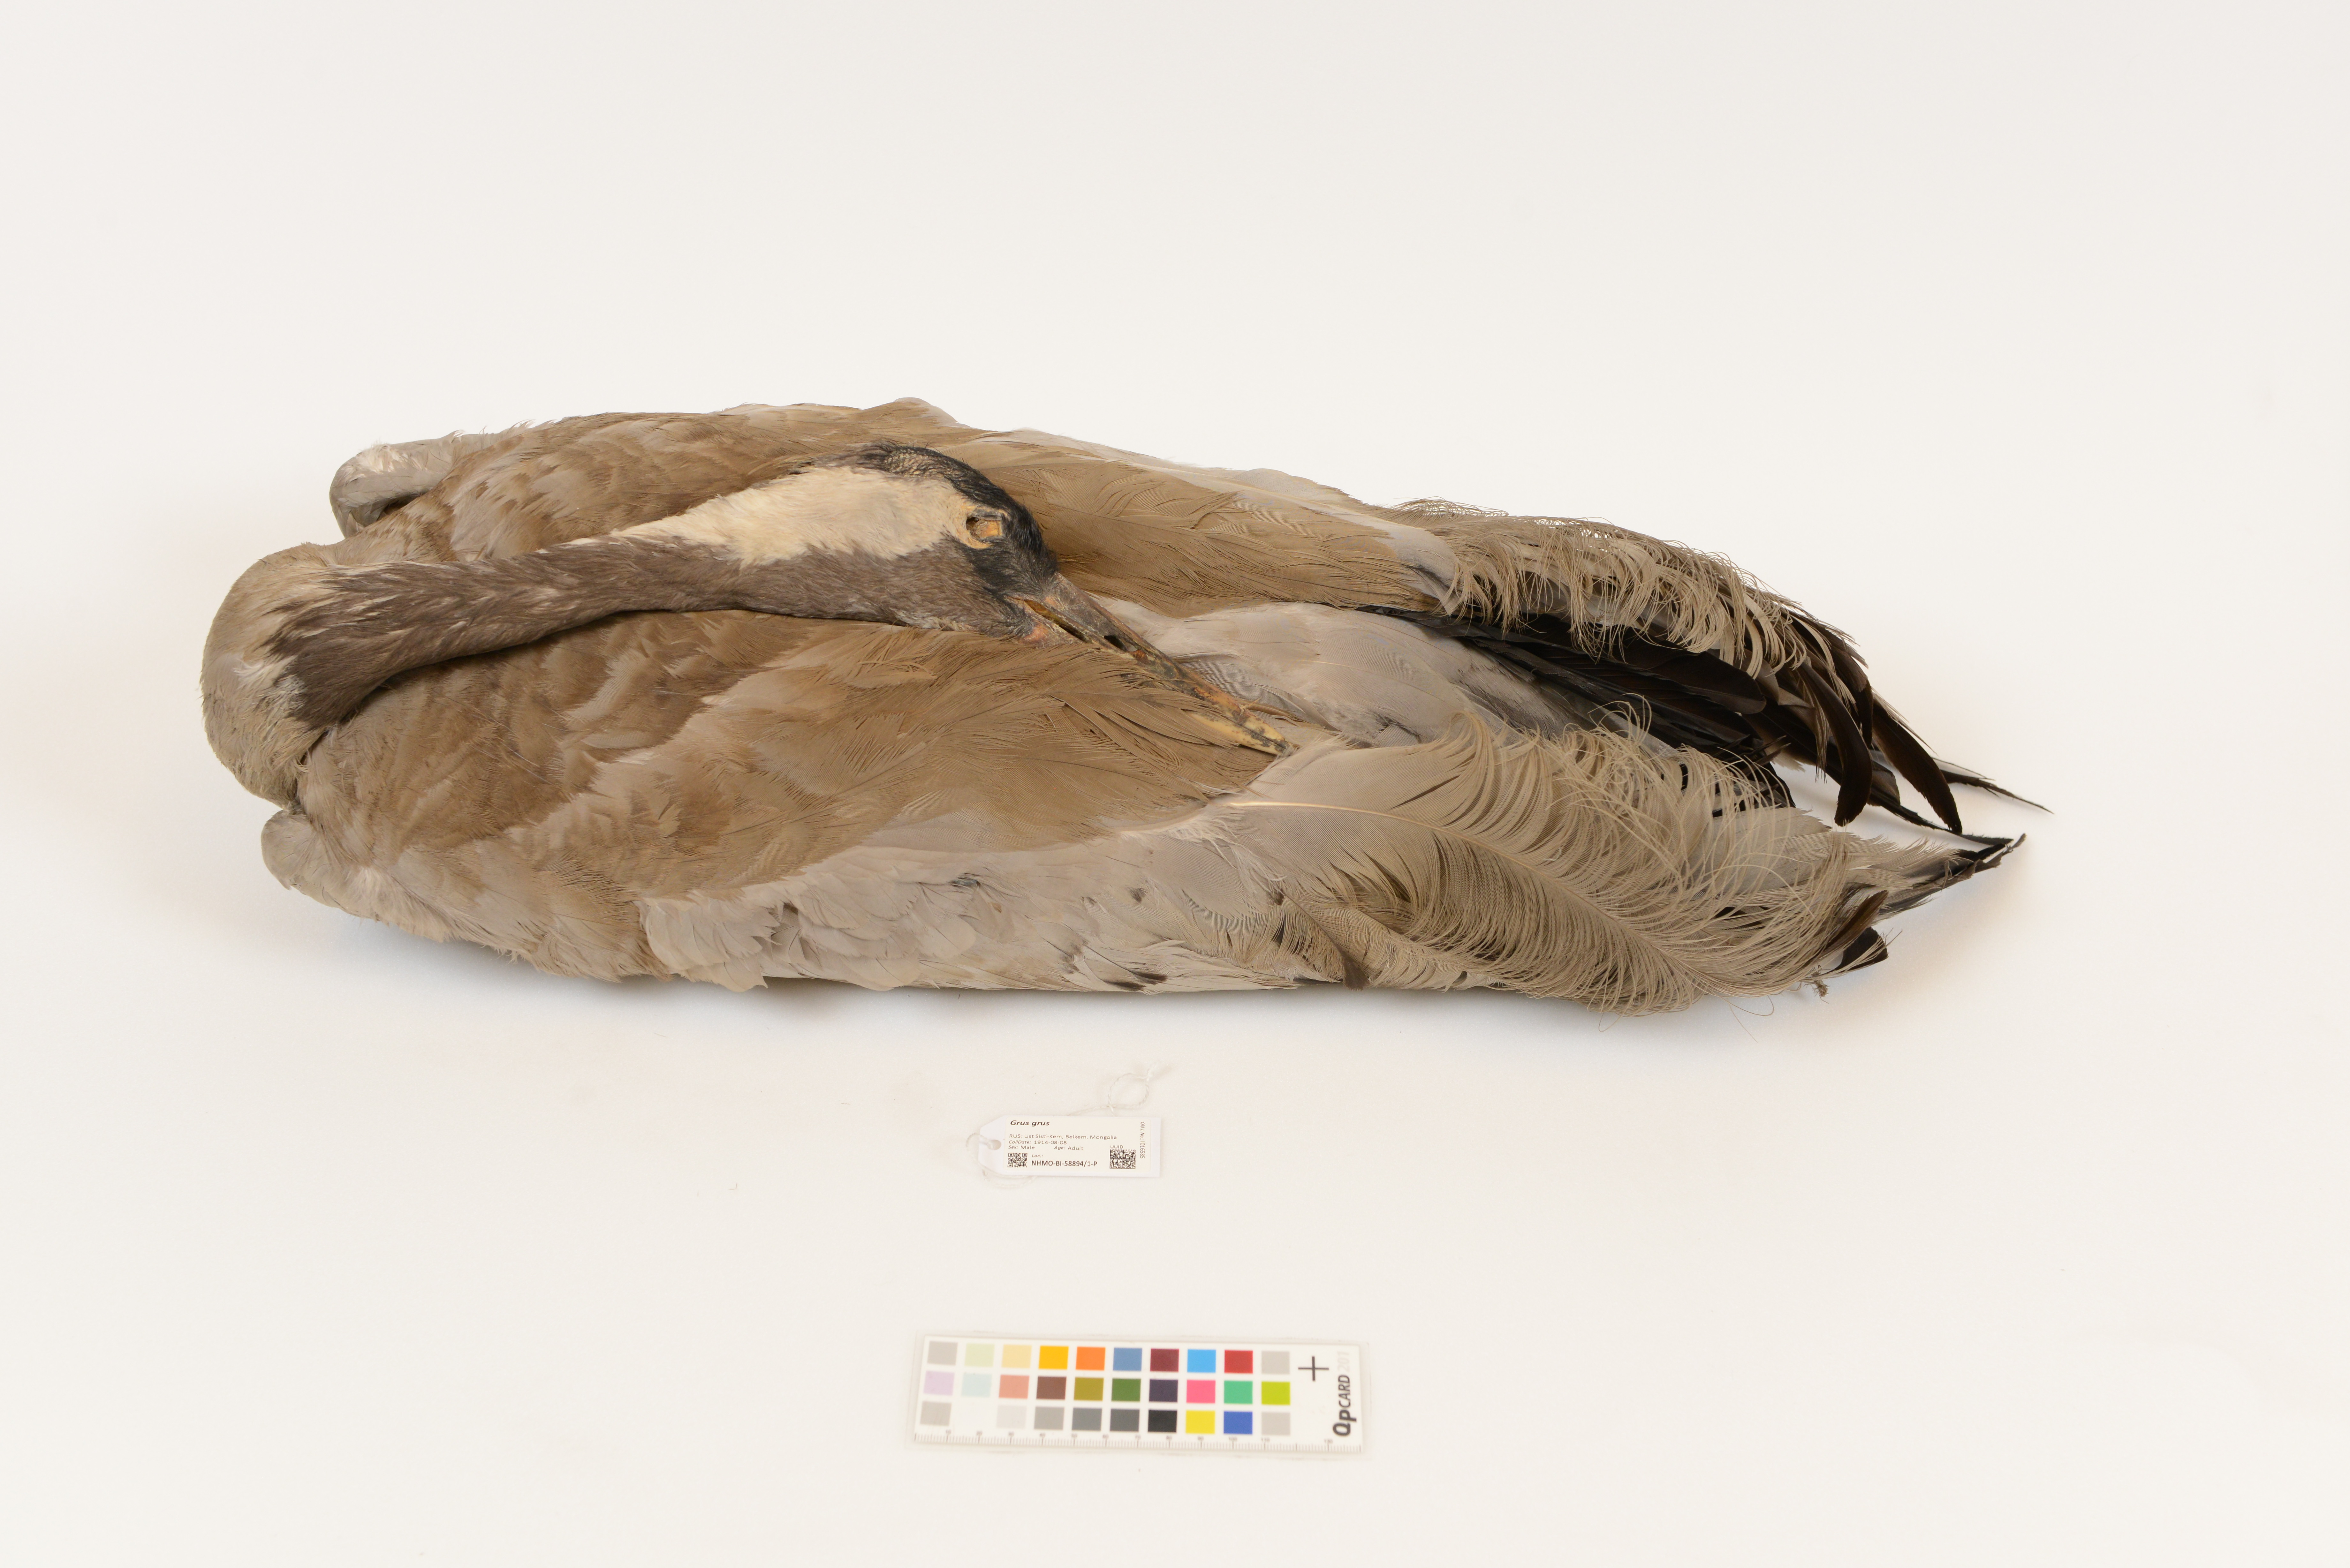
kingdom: Animalia
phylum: Chordata
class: Aves
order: Gruiformes
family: Gruidae
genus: Grus
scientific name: Grus grus
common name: Common crane
